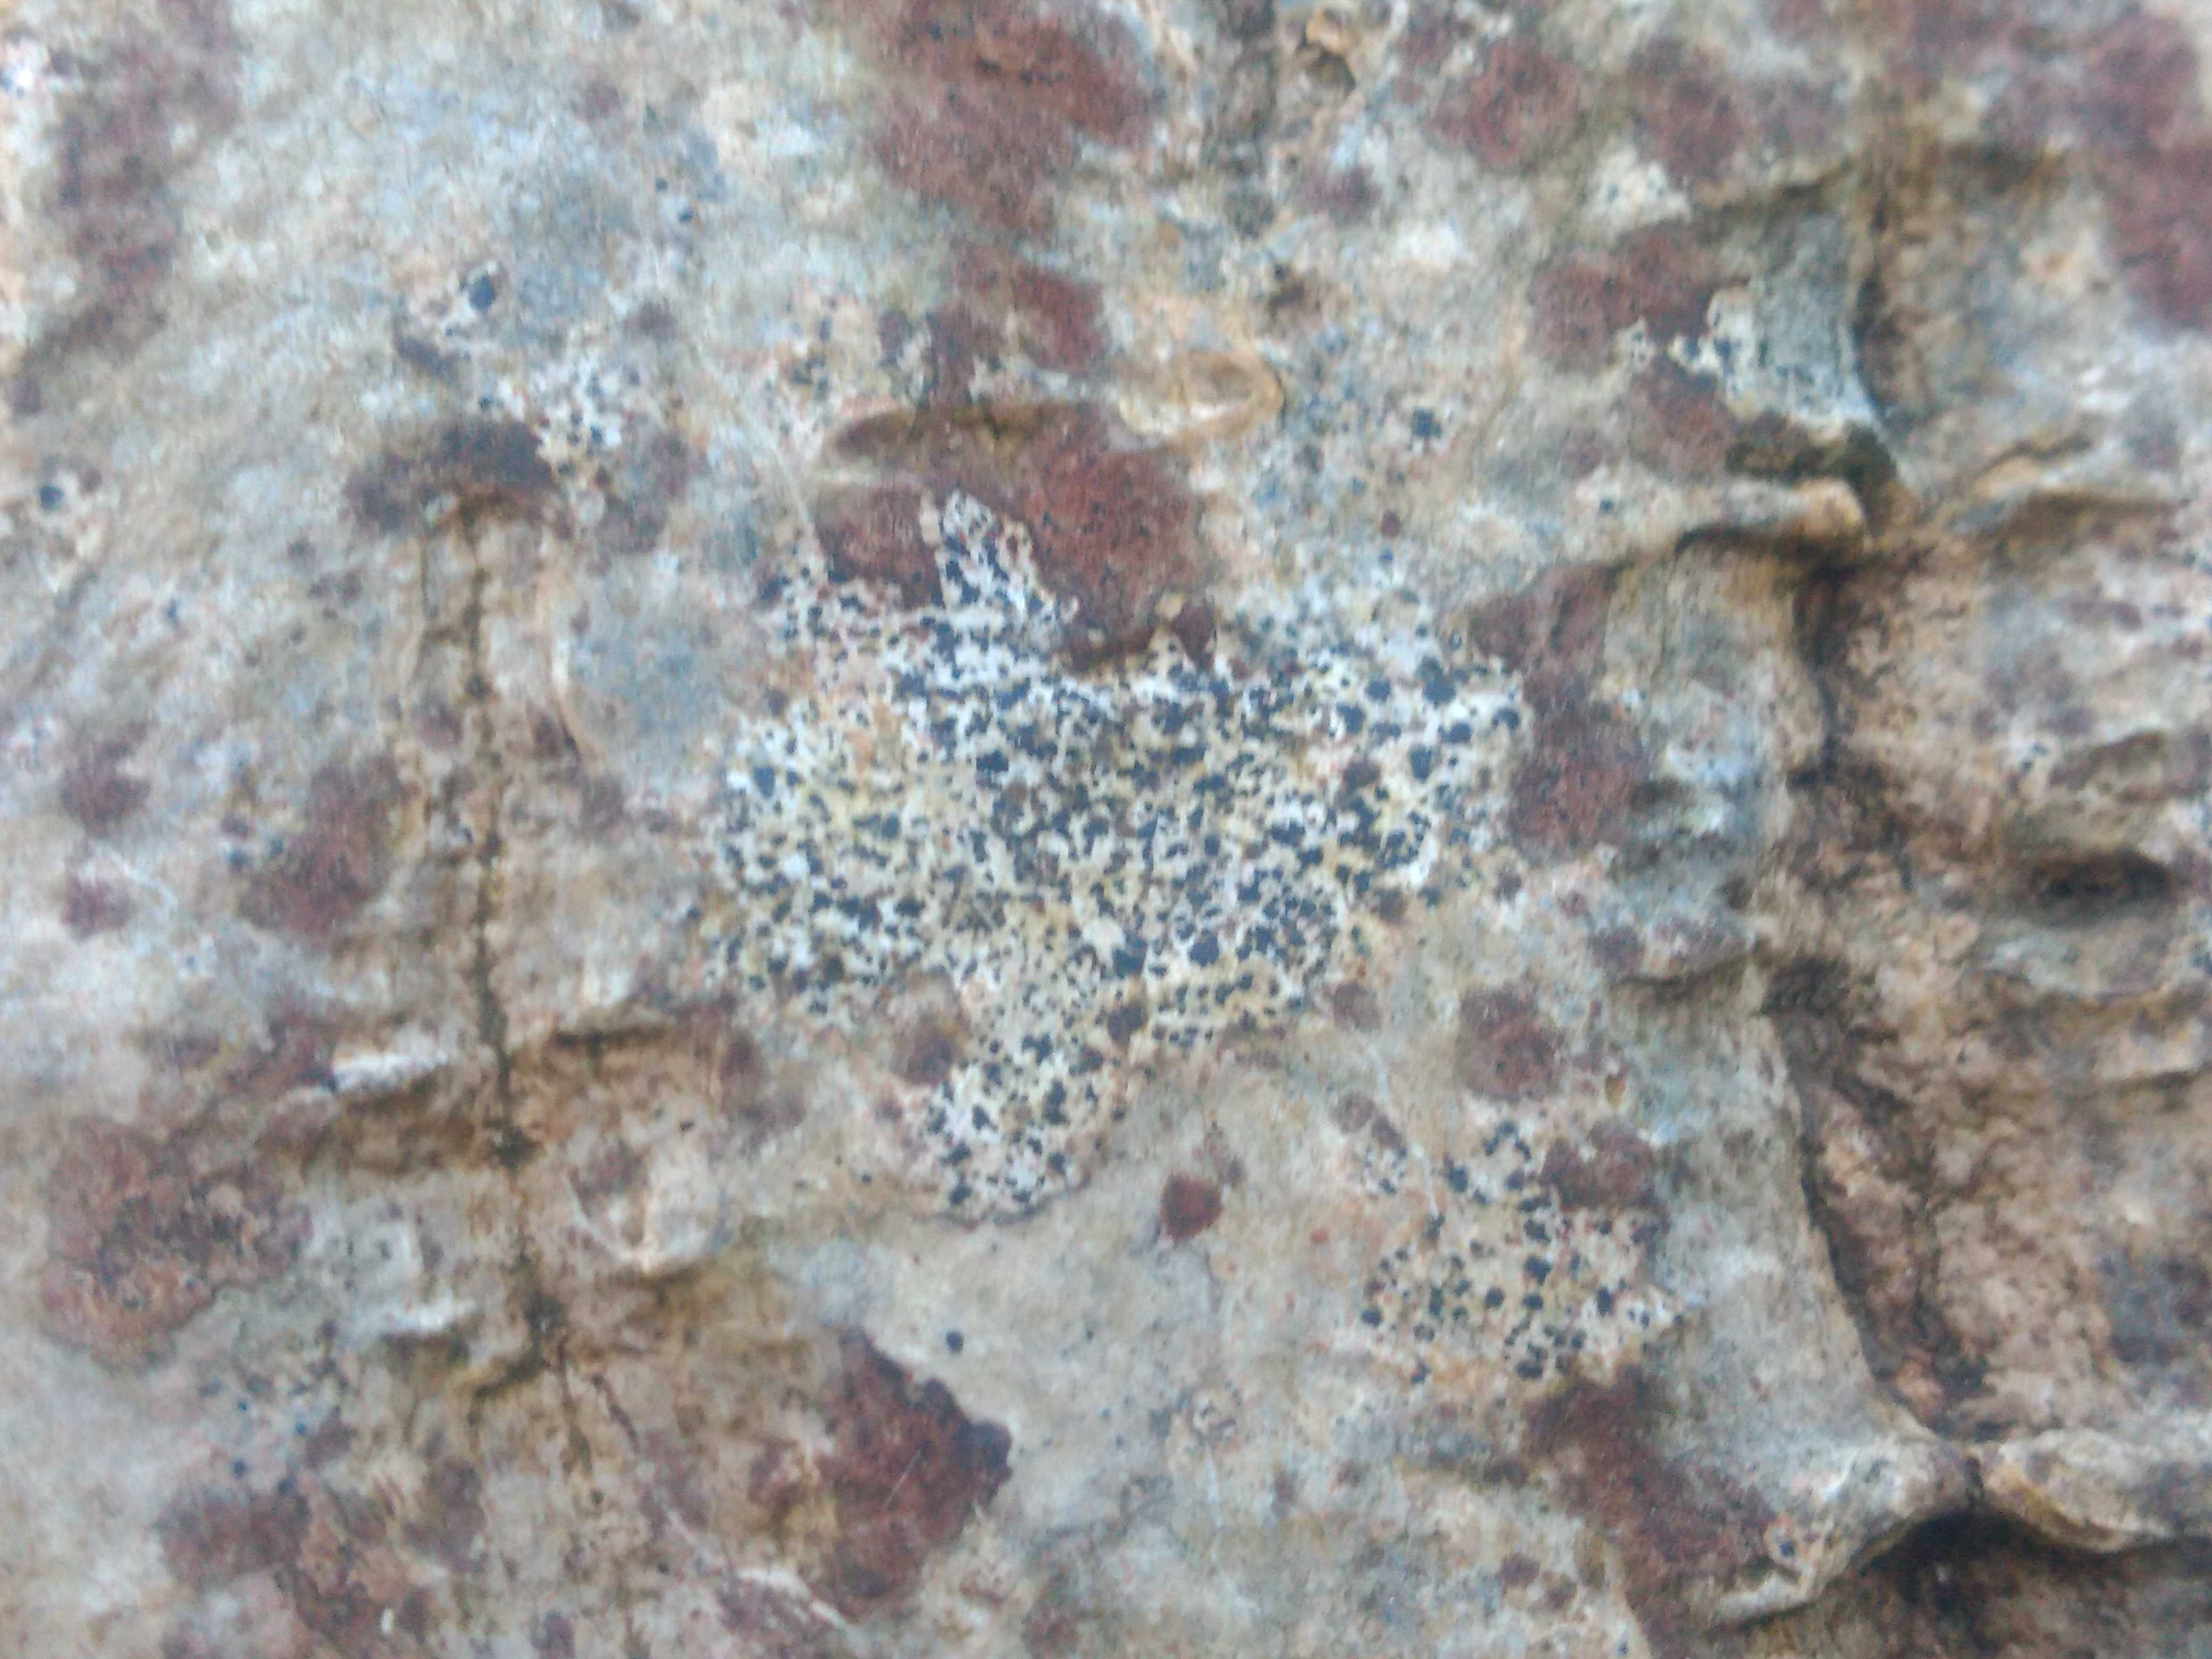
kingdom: Fungi
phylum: Ascomycota
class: Arthoniomycetes
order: Arthoniales
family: Arthoniaceae
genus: Arthonia
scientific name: Arthonia radiata
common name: stjerne-pletlav
